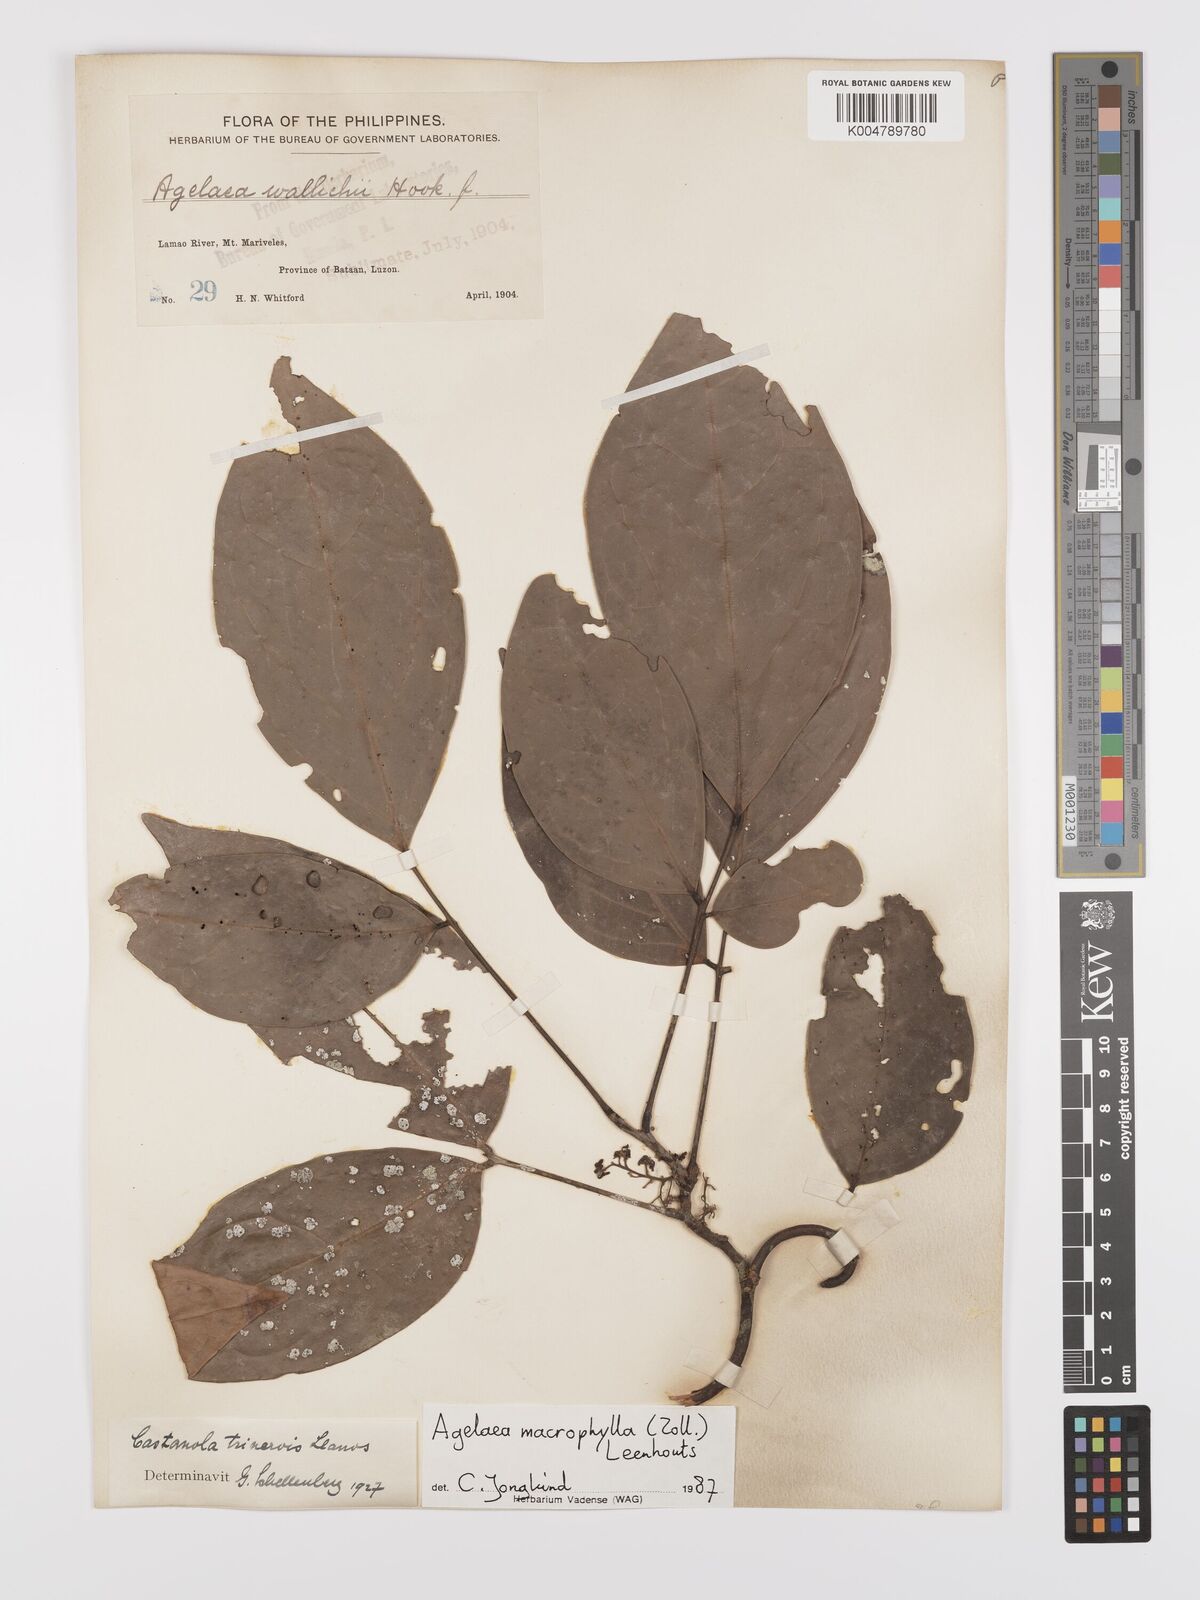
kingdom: Plantae
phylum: Tracheophyta
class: Magnoliopsida
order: Oxalidales
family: Connaraceae
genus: Agelaea
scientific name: Agelaea trinervis
